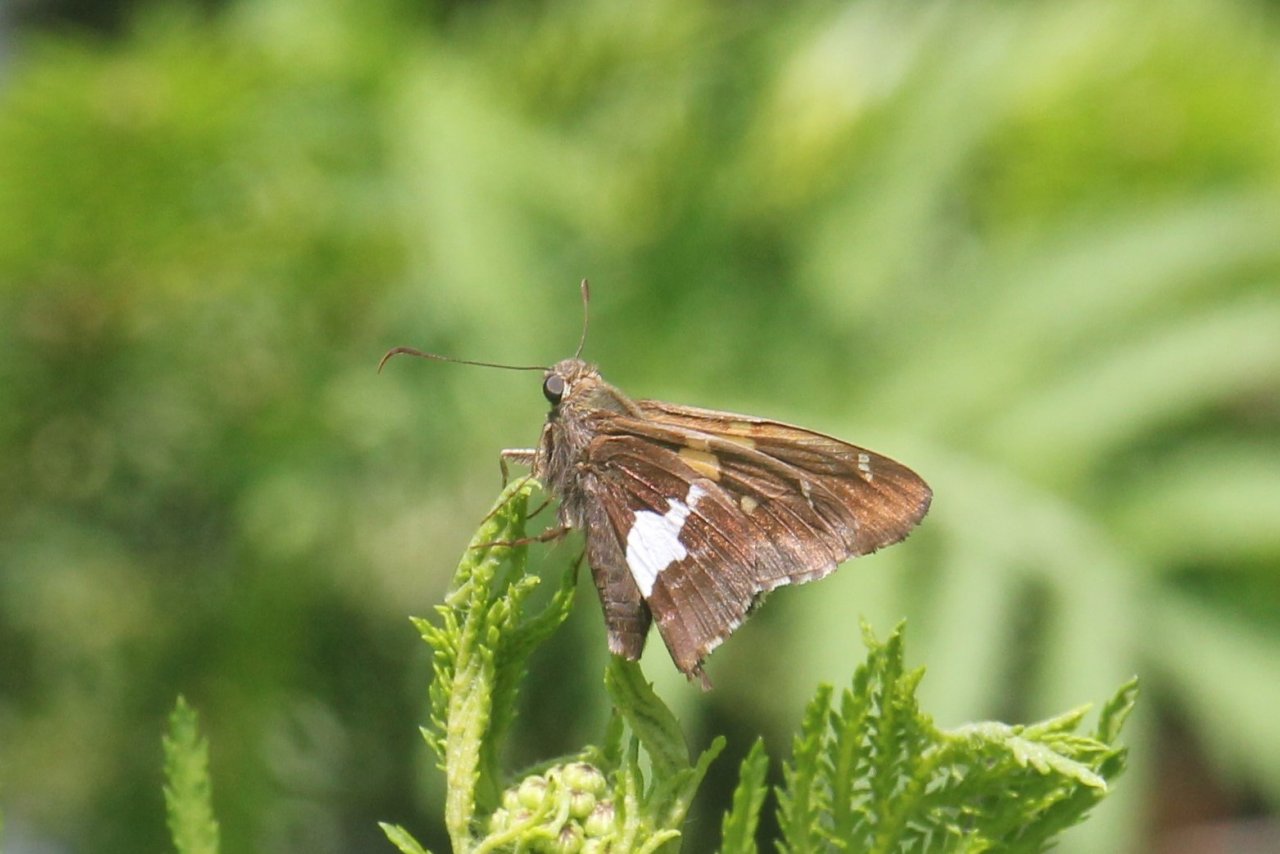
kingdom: Animalia
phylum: Arthropoda
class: Insecta
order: Lepidoptera
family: Hesperiidae
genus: Epargyreus
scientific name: Epargyreus clarus
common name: Silver-spotted Skipper
